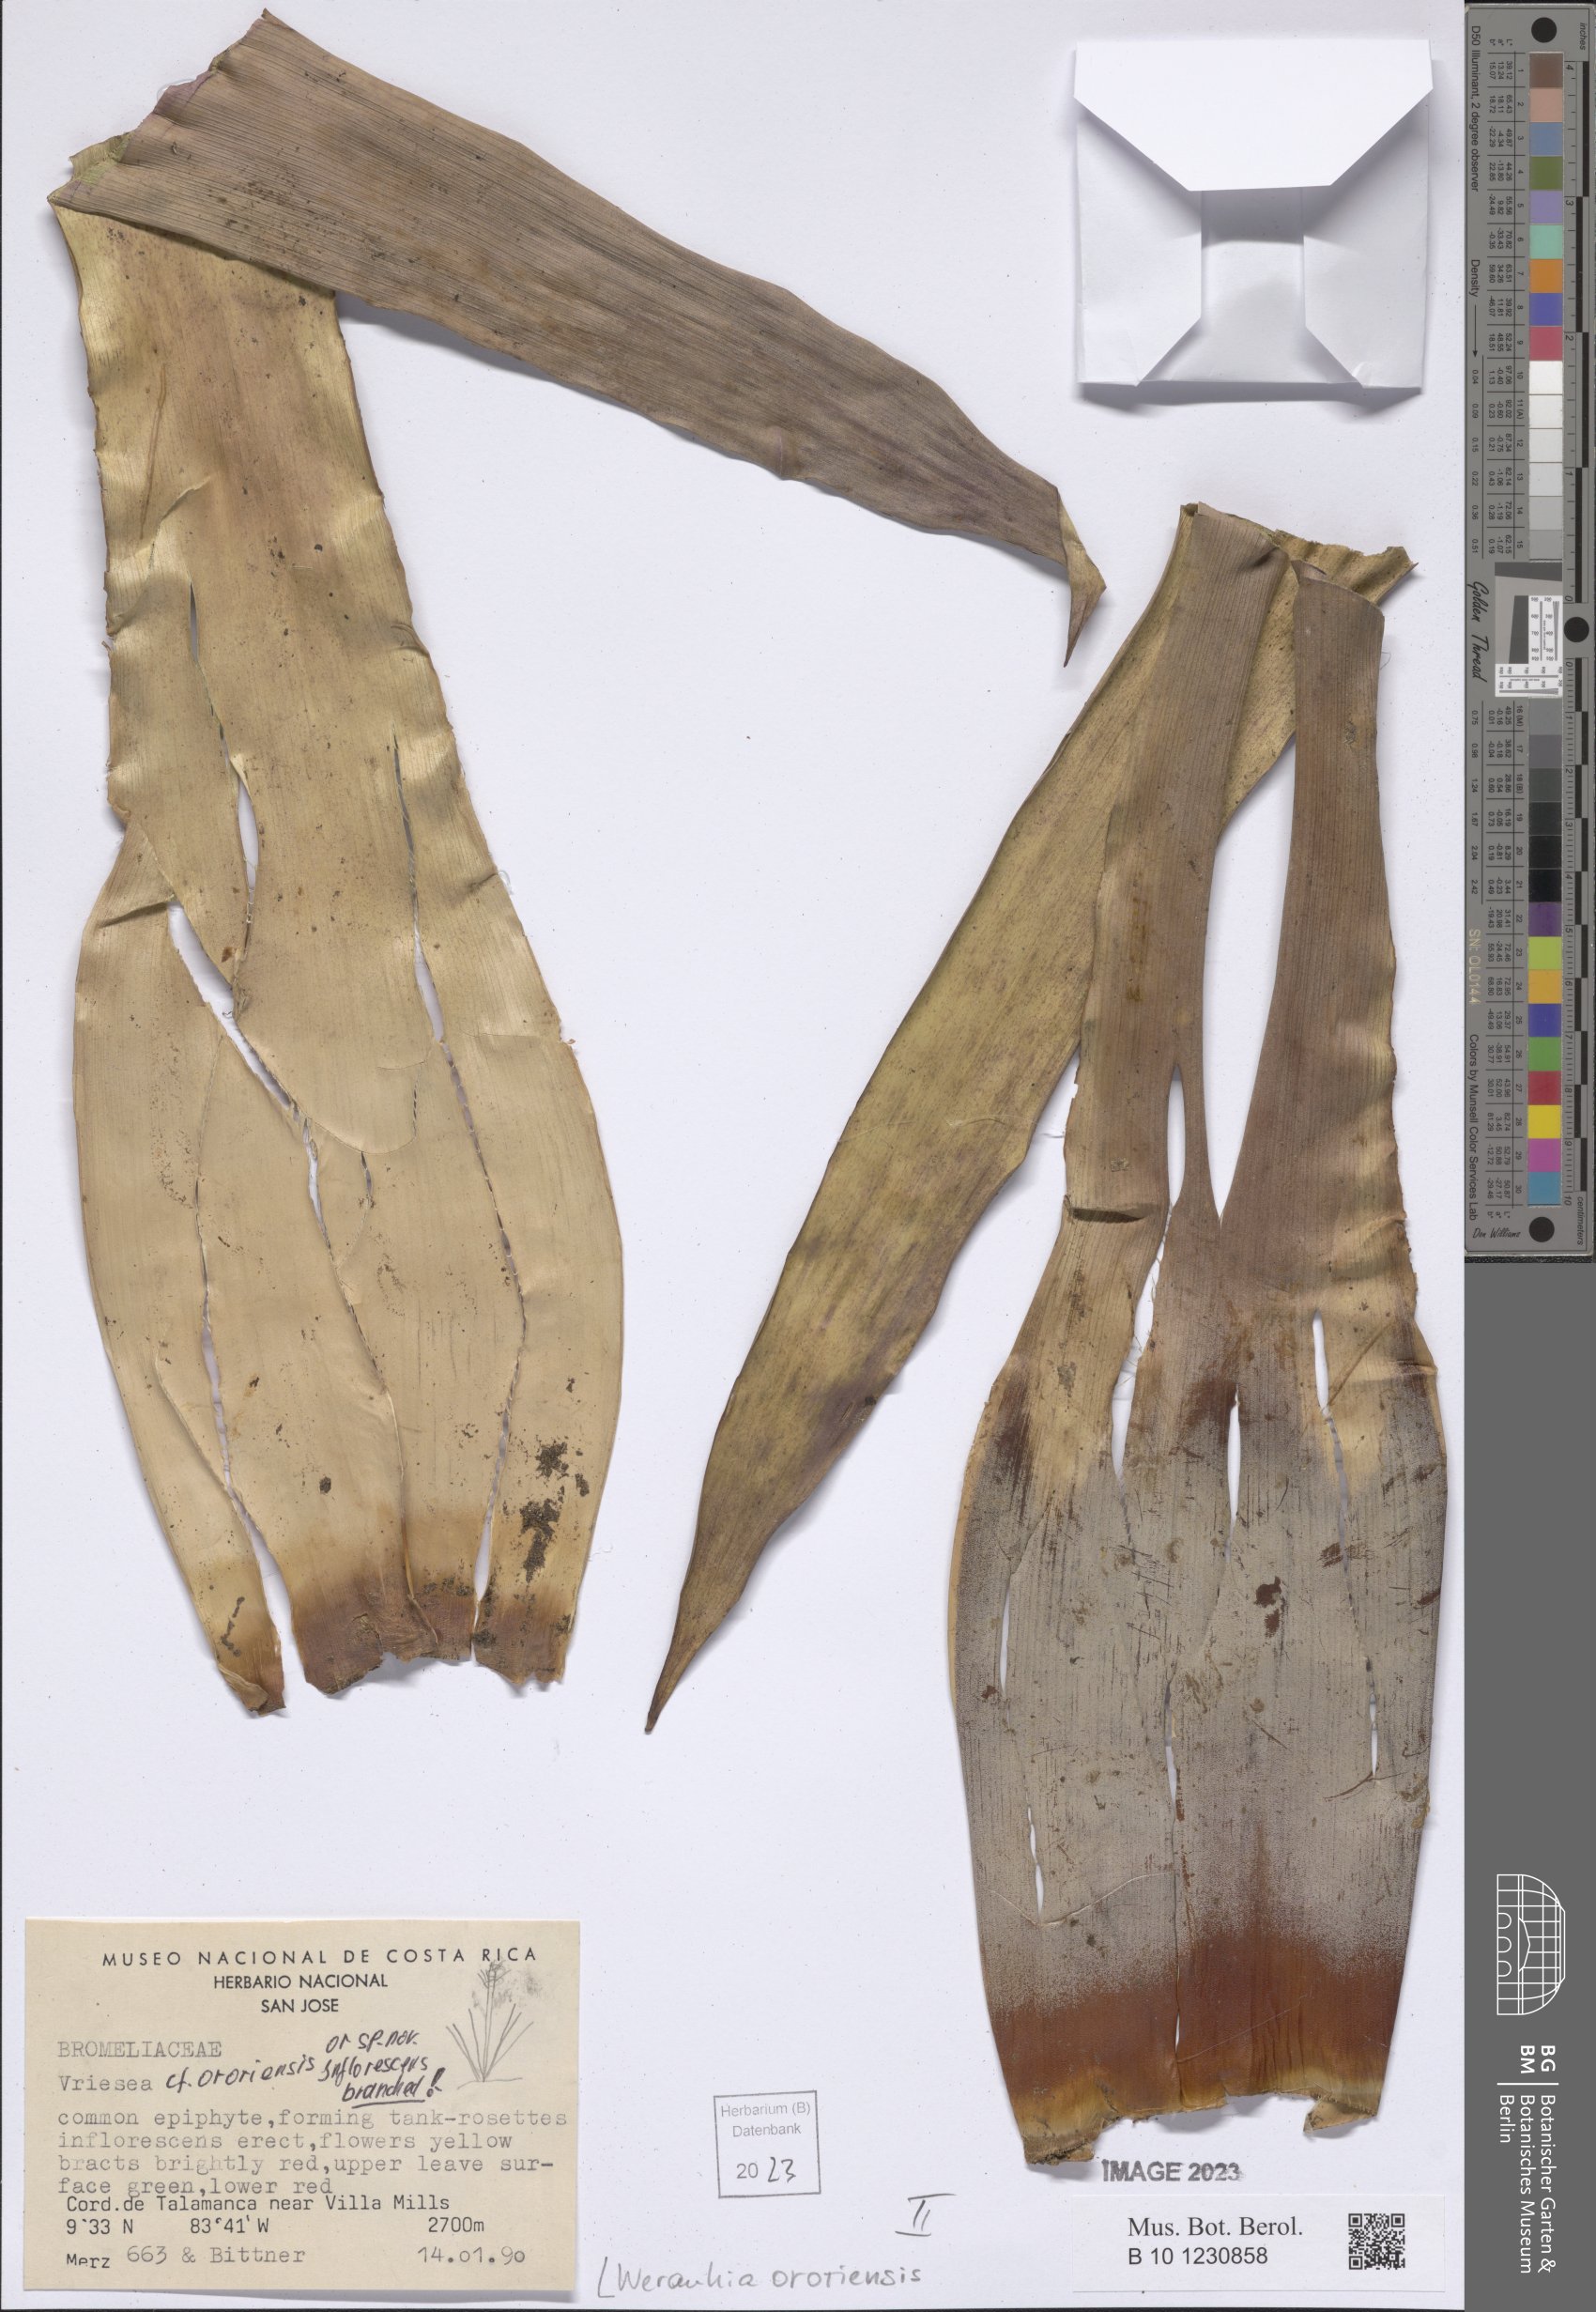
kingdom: Plantae
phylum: Tracheophyta
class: Liliopsida
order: Poales
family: Bromeliaceae
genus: Werauhia
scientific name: Werauhia ororiensis
